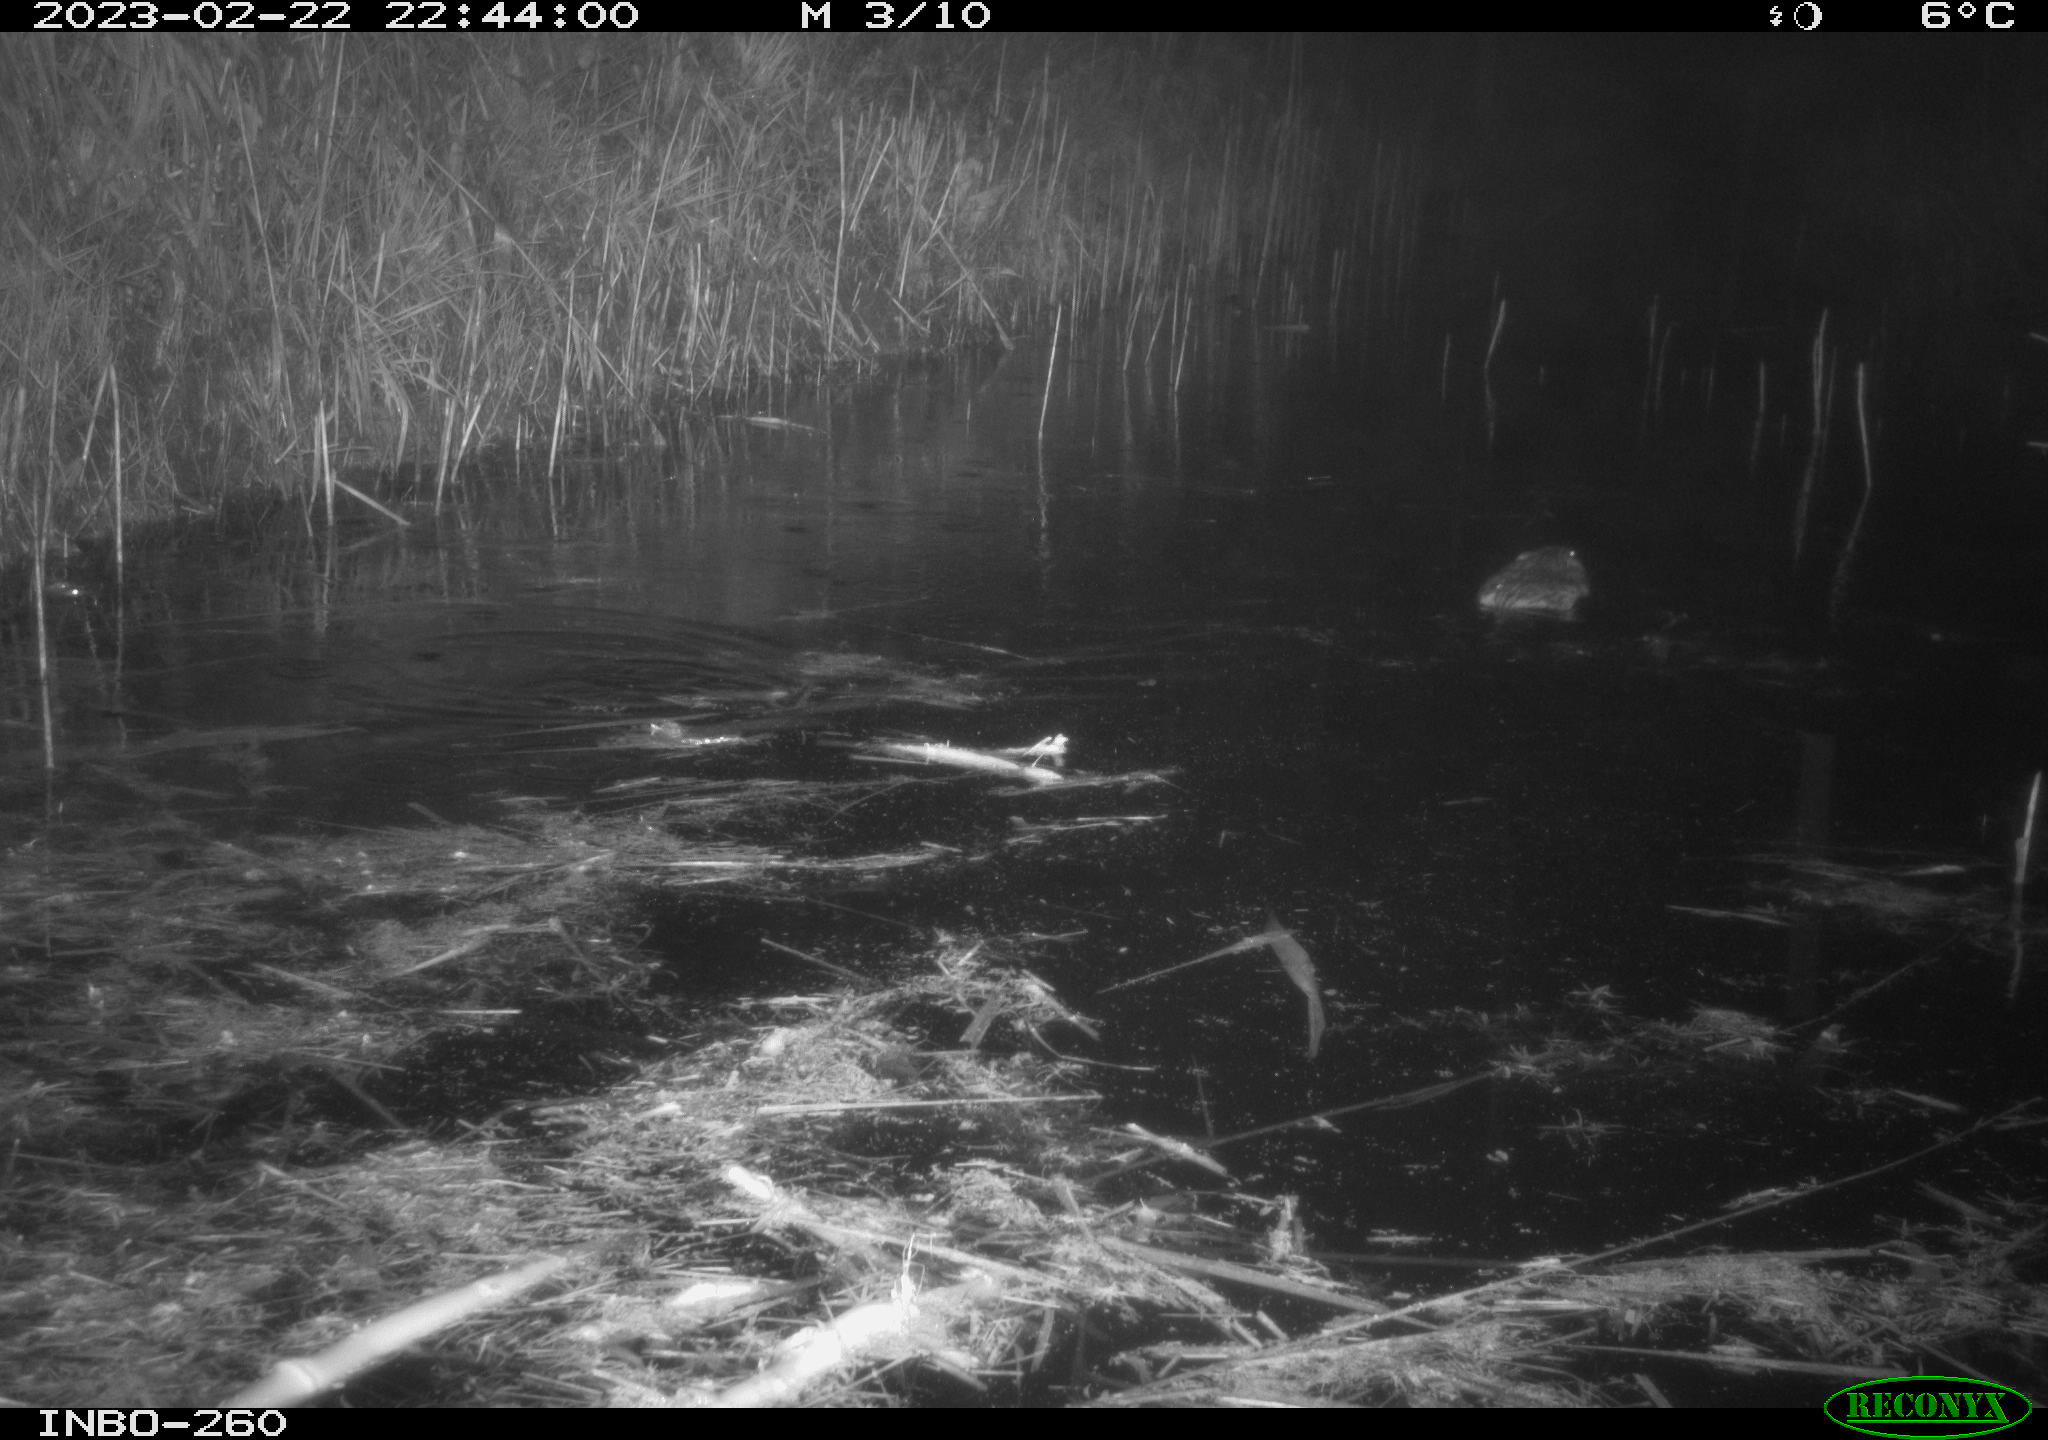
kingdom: Animalia
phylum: Chordata
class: Mammalia
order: Rodentia
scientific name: Rodentia
